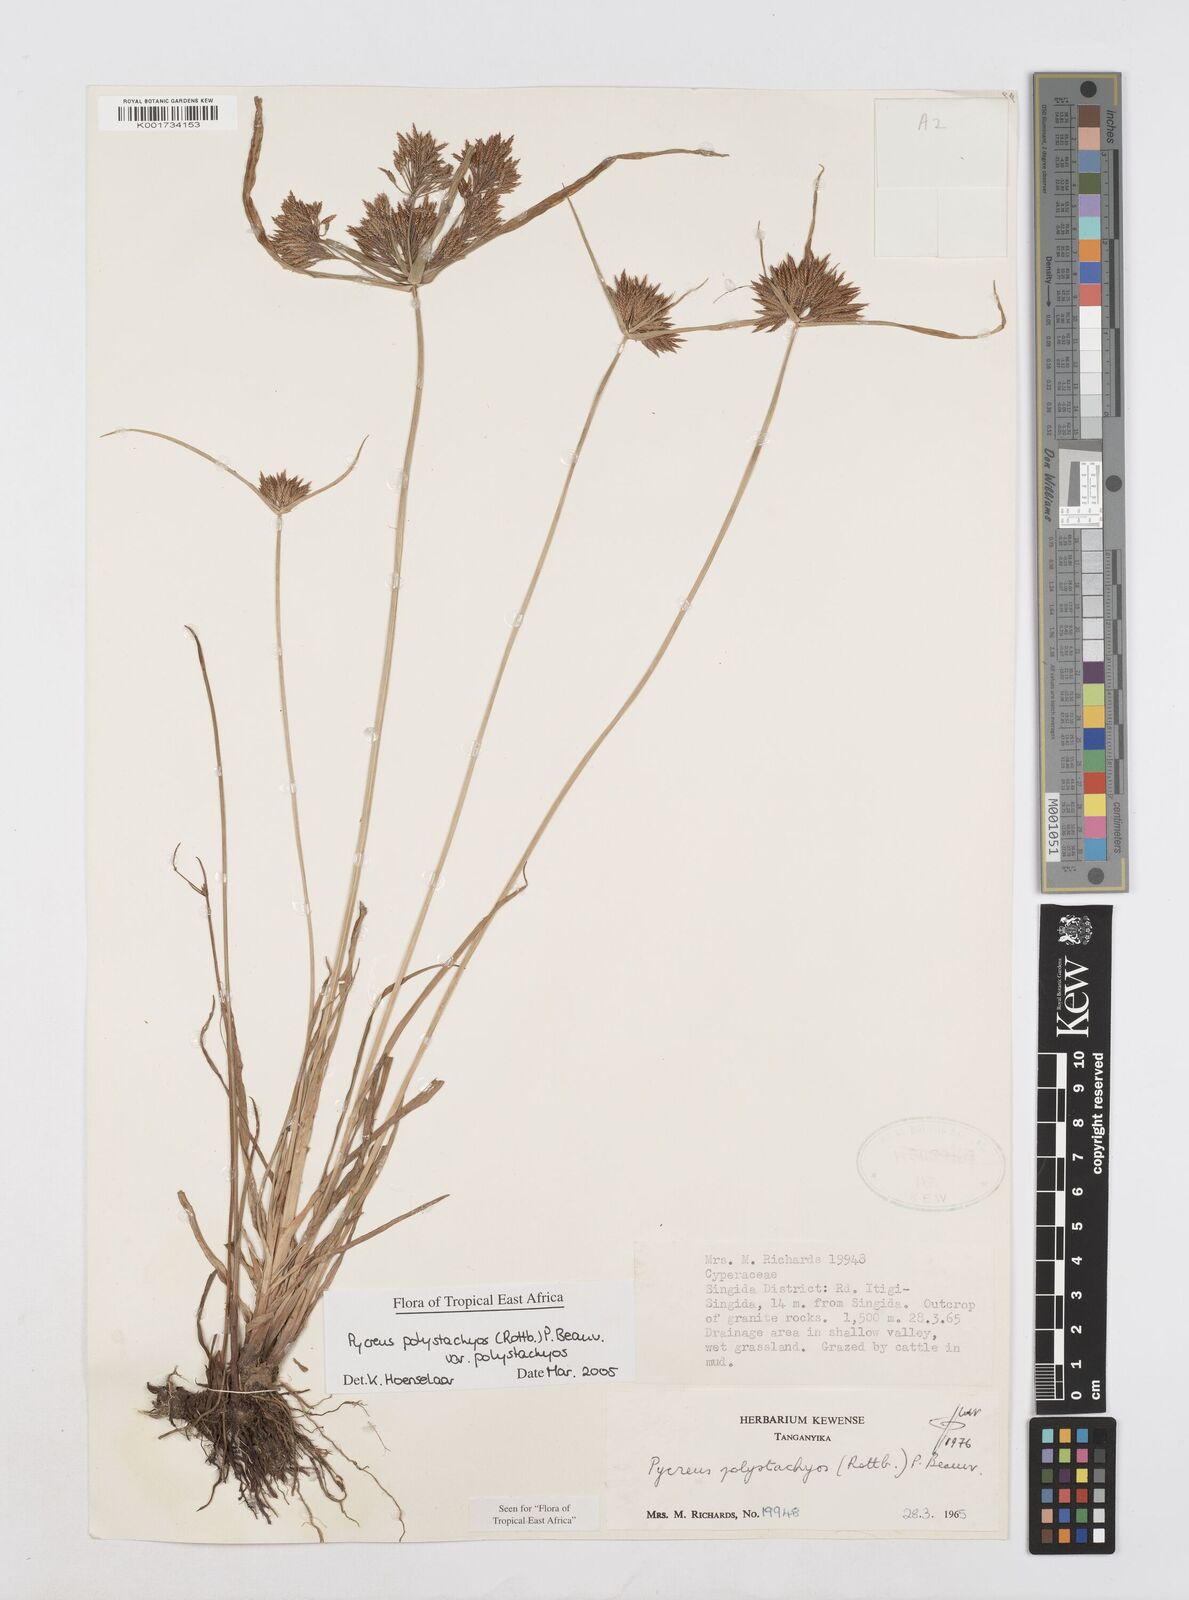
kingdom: Plantae
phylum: Tracheophyta
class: Liliopsida
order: Poales
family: Cyperaceae
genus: Cyperus
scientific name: Cyperus polystachyos
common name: Bunchy flat sedge
